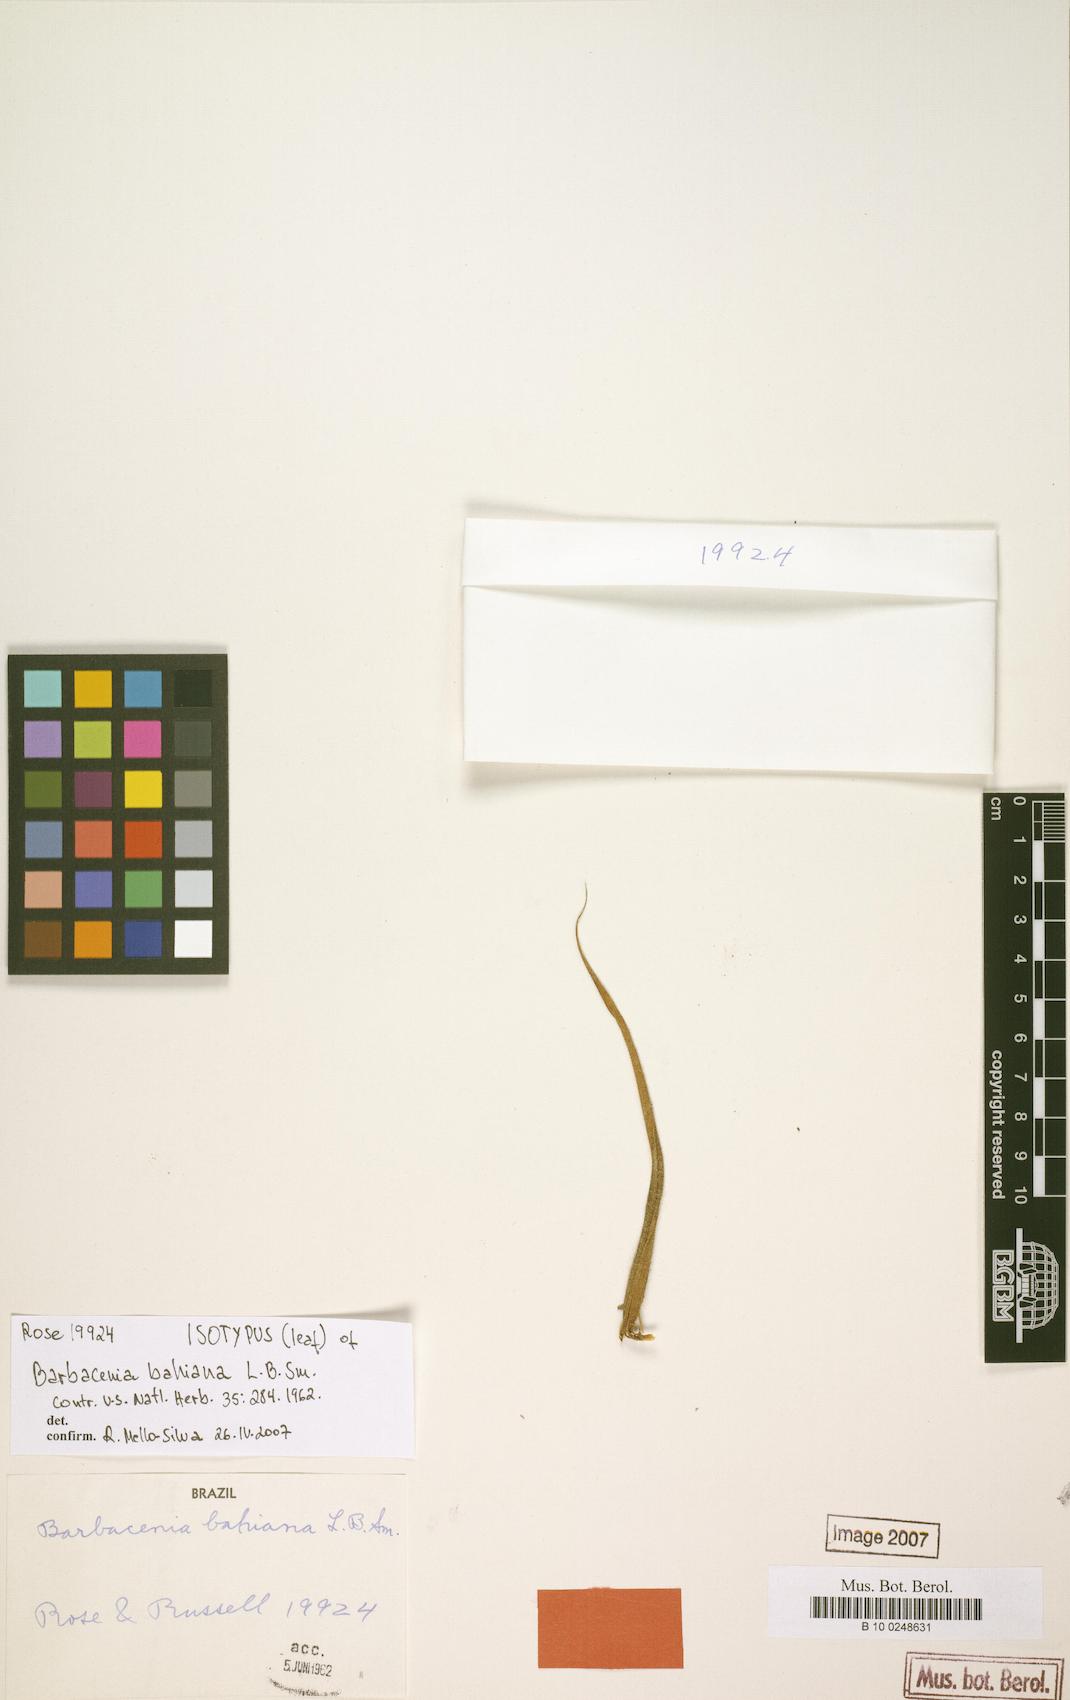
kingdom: Plantae
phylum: Tracheophyta
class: Liliopsida
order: Pandanales
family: Velloziaceae
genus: Barbacenia
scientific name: Barbacenia bahiana
